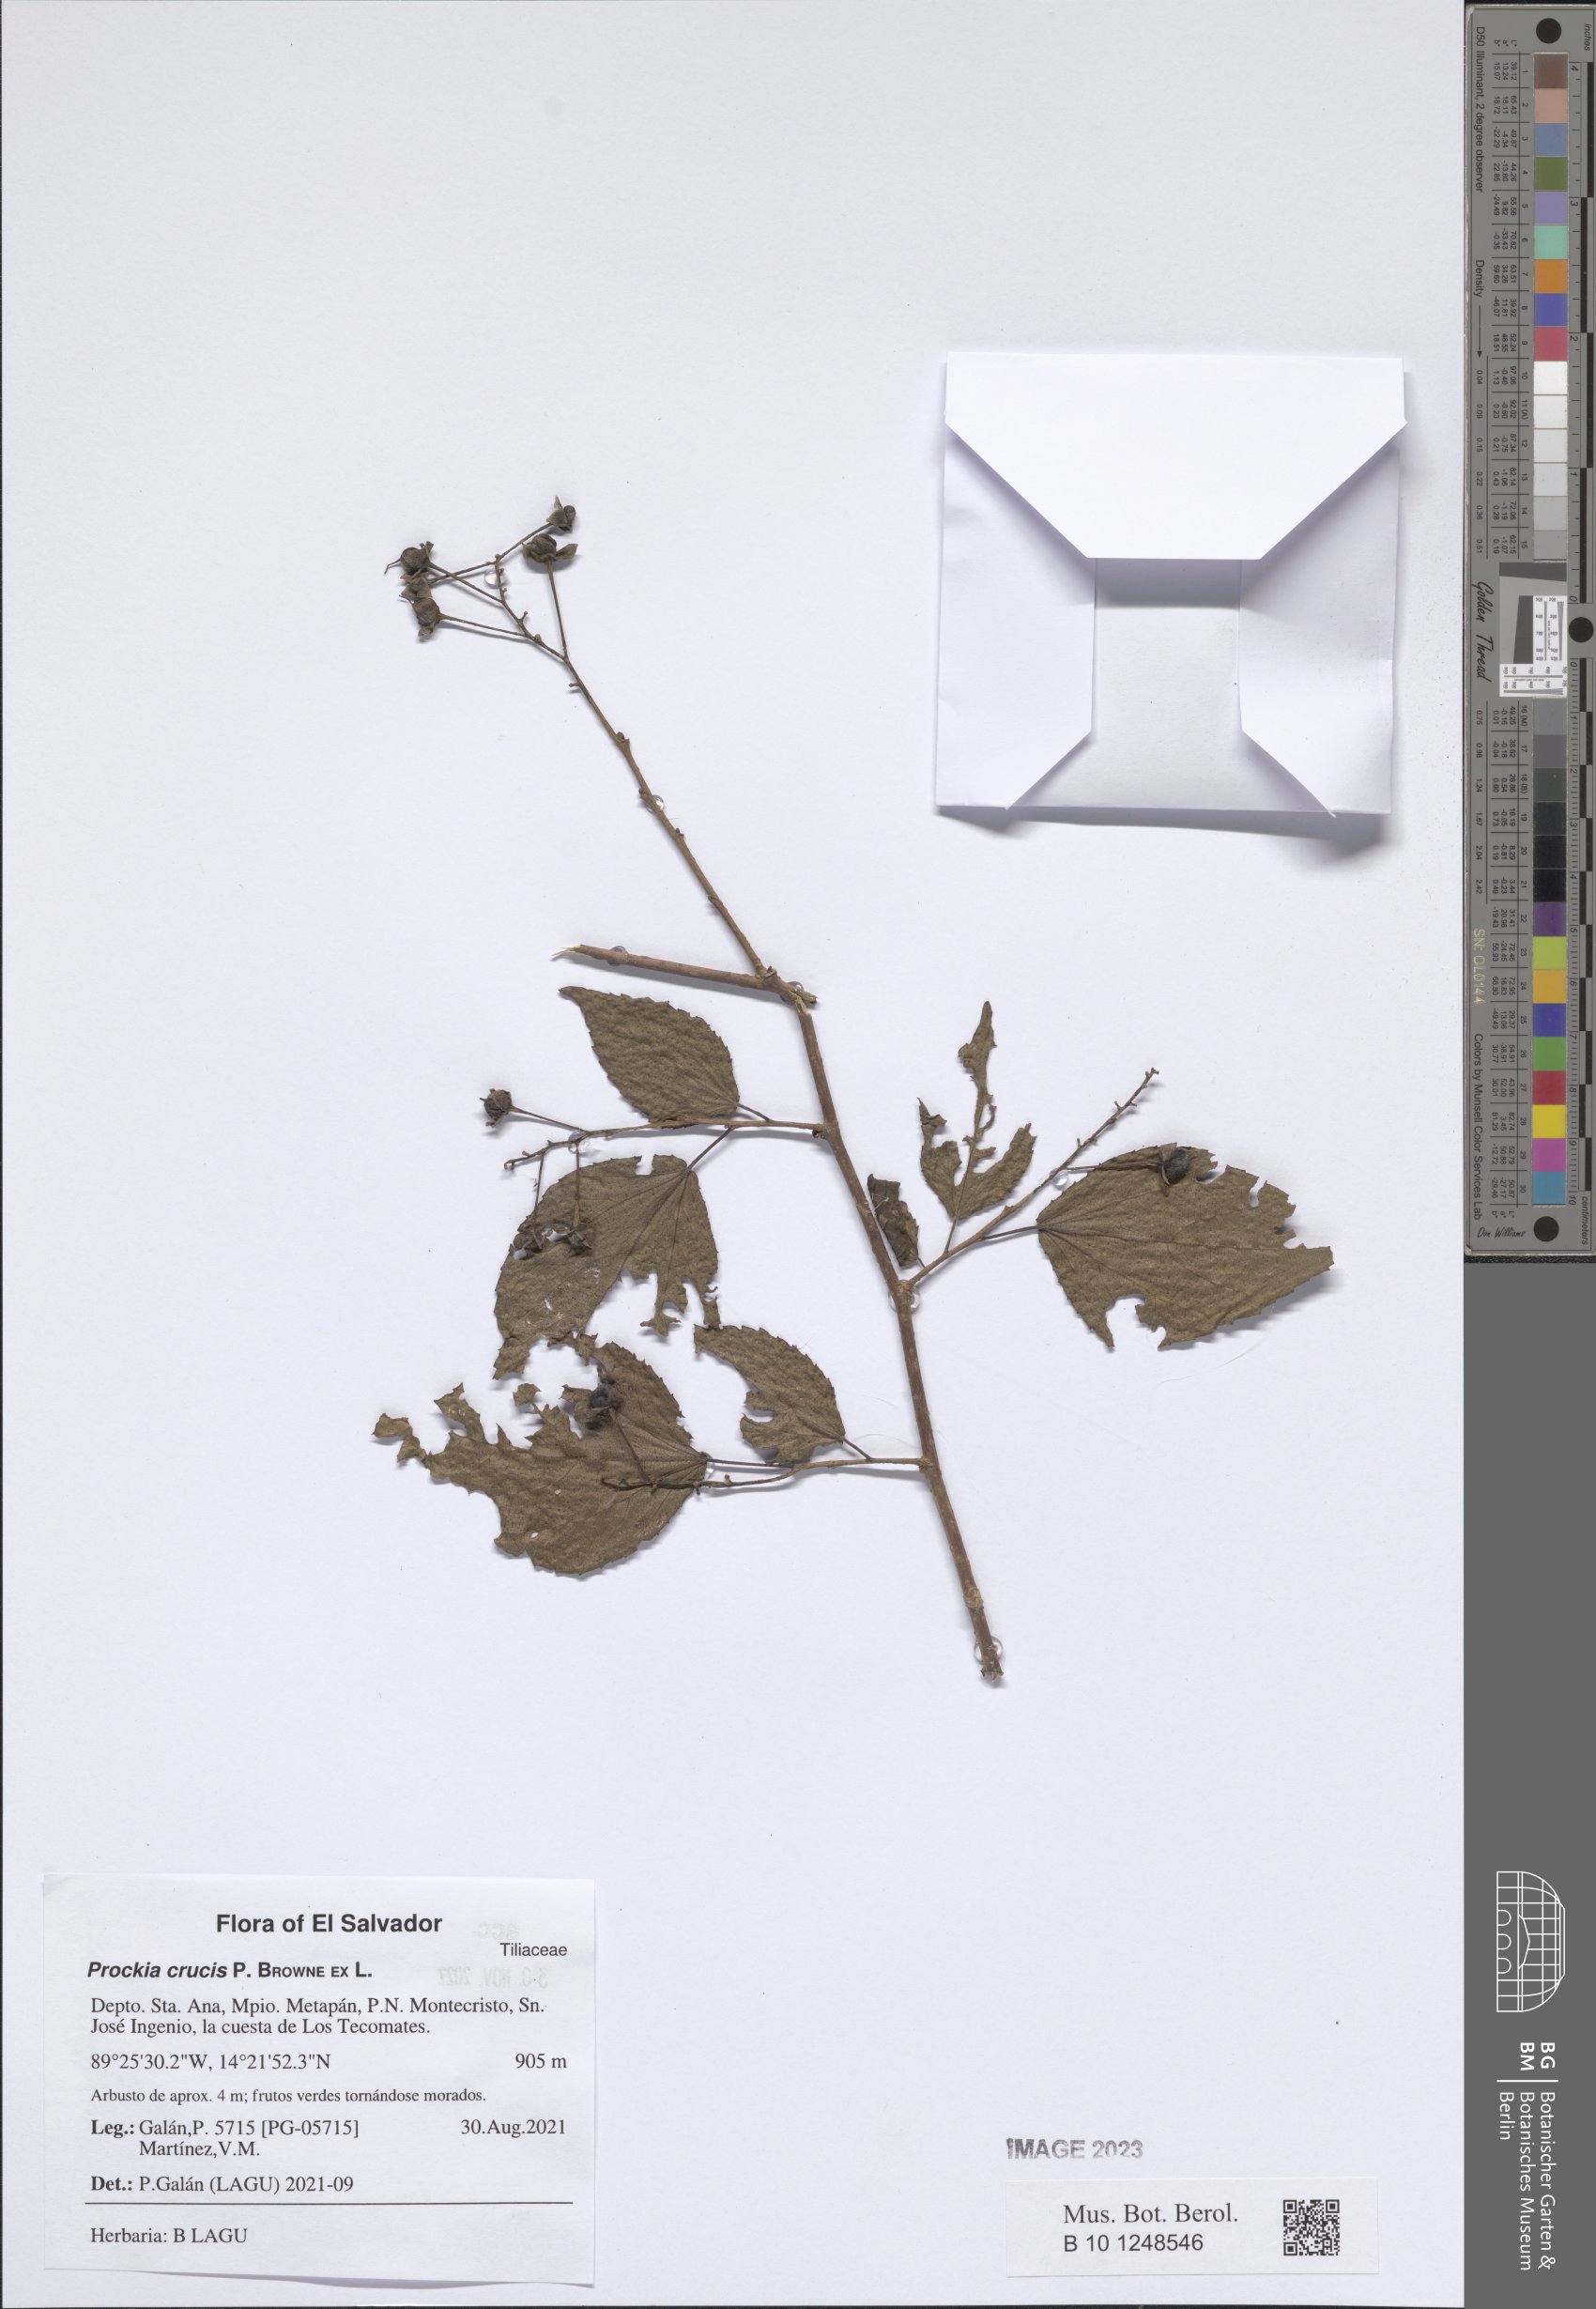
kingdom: Plantae
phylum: Tracheophyta
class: Magnoliopsida
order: Malpighiales
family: Salicaceae
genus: Prockia
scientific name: Prockia crucis
